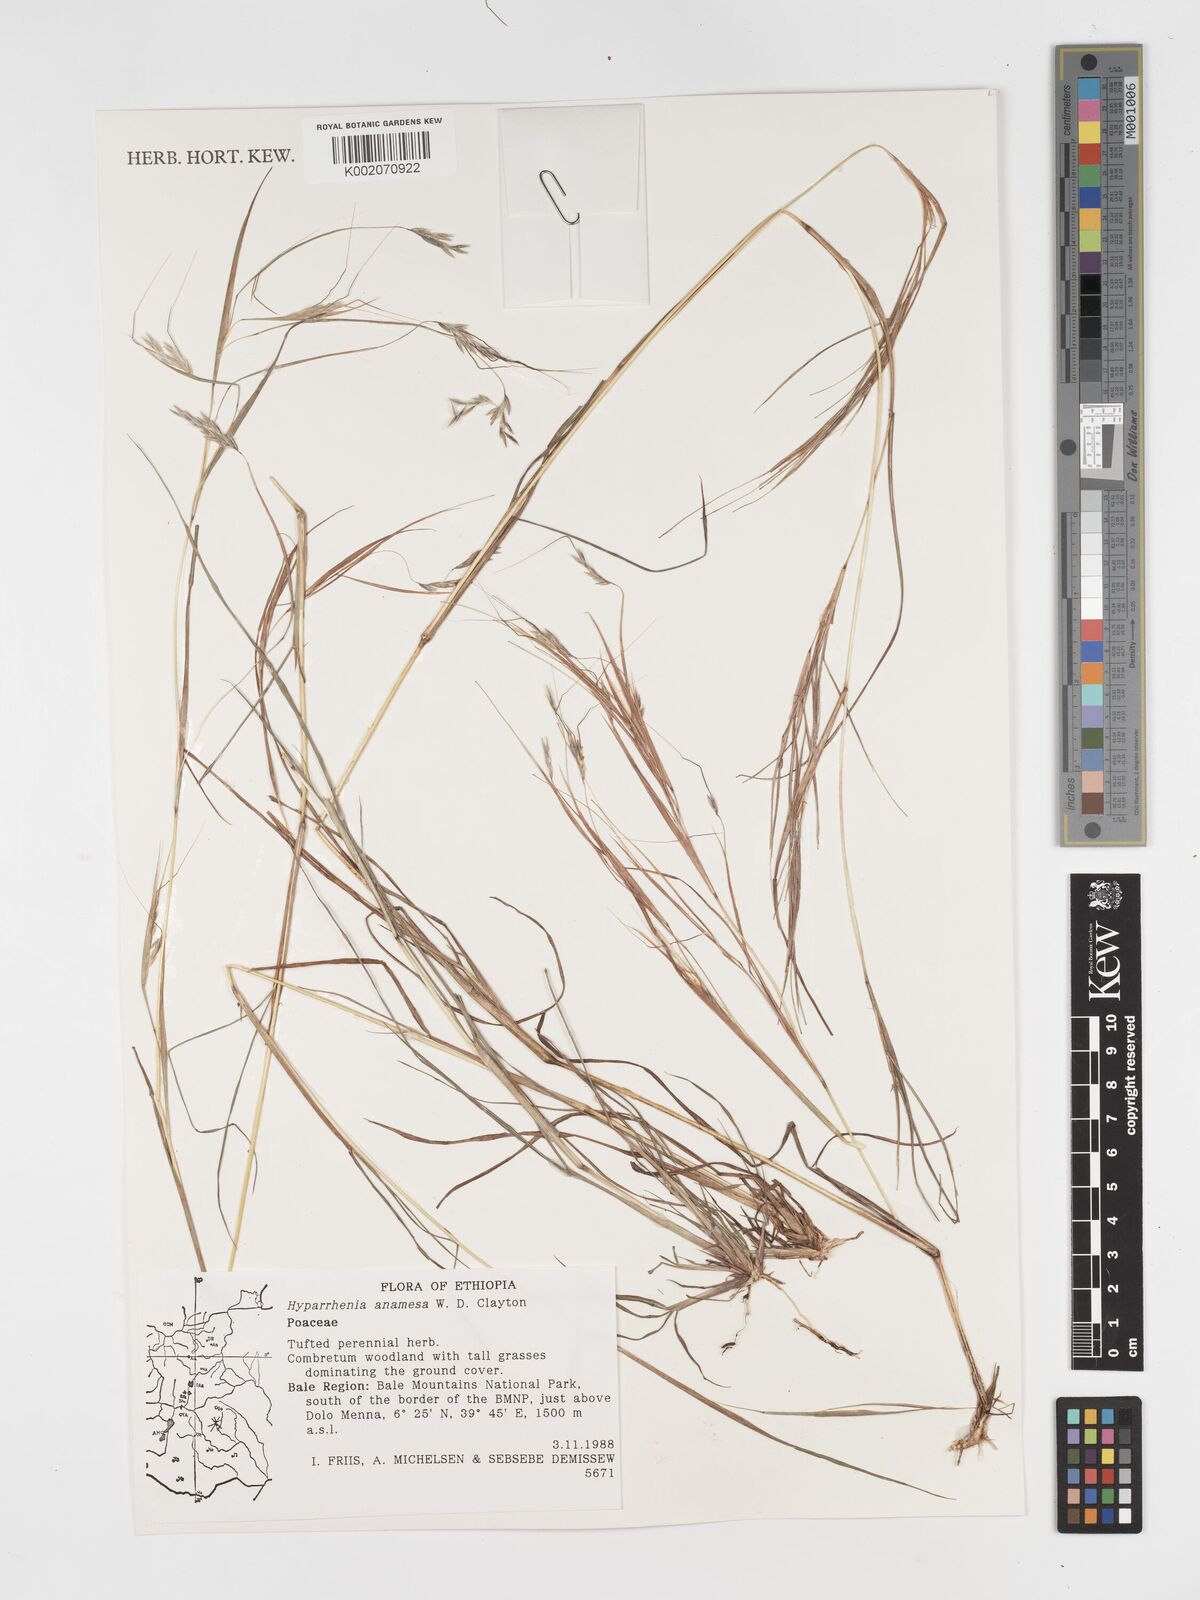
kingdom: Plantae
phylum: Tracheophyta
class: Liliopsida
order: Poales
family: Poaceae
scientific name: Poaceae
